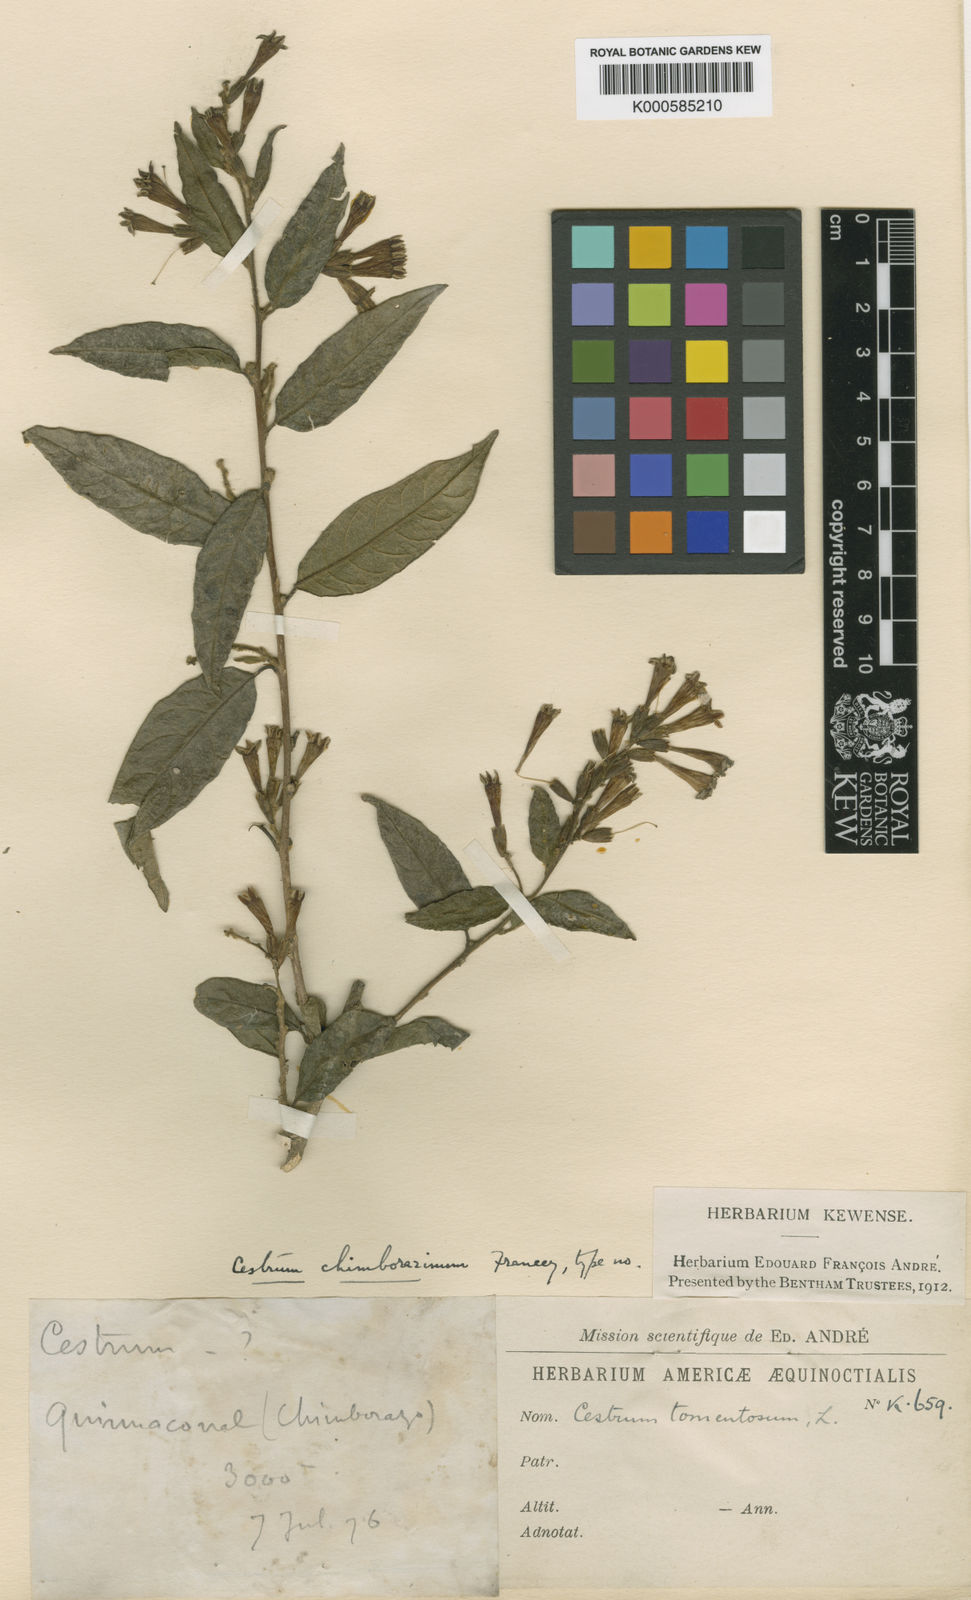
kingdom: Plantae
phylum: Tracheophyta
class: Magnoliopsida
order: Solanales
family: Solanaceae
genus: Cestrum
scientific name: Cestrum chimborazinum
